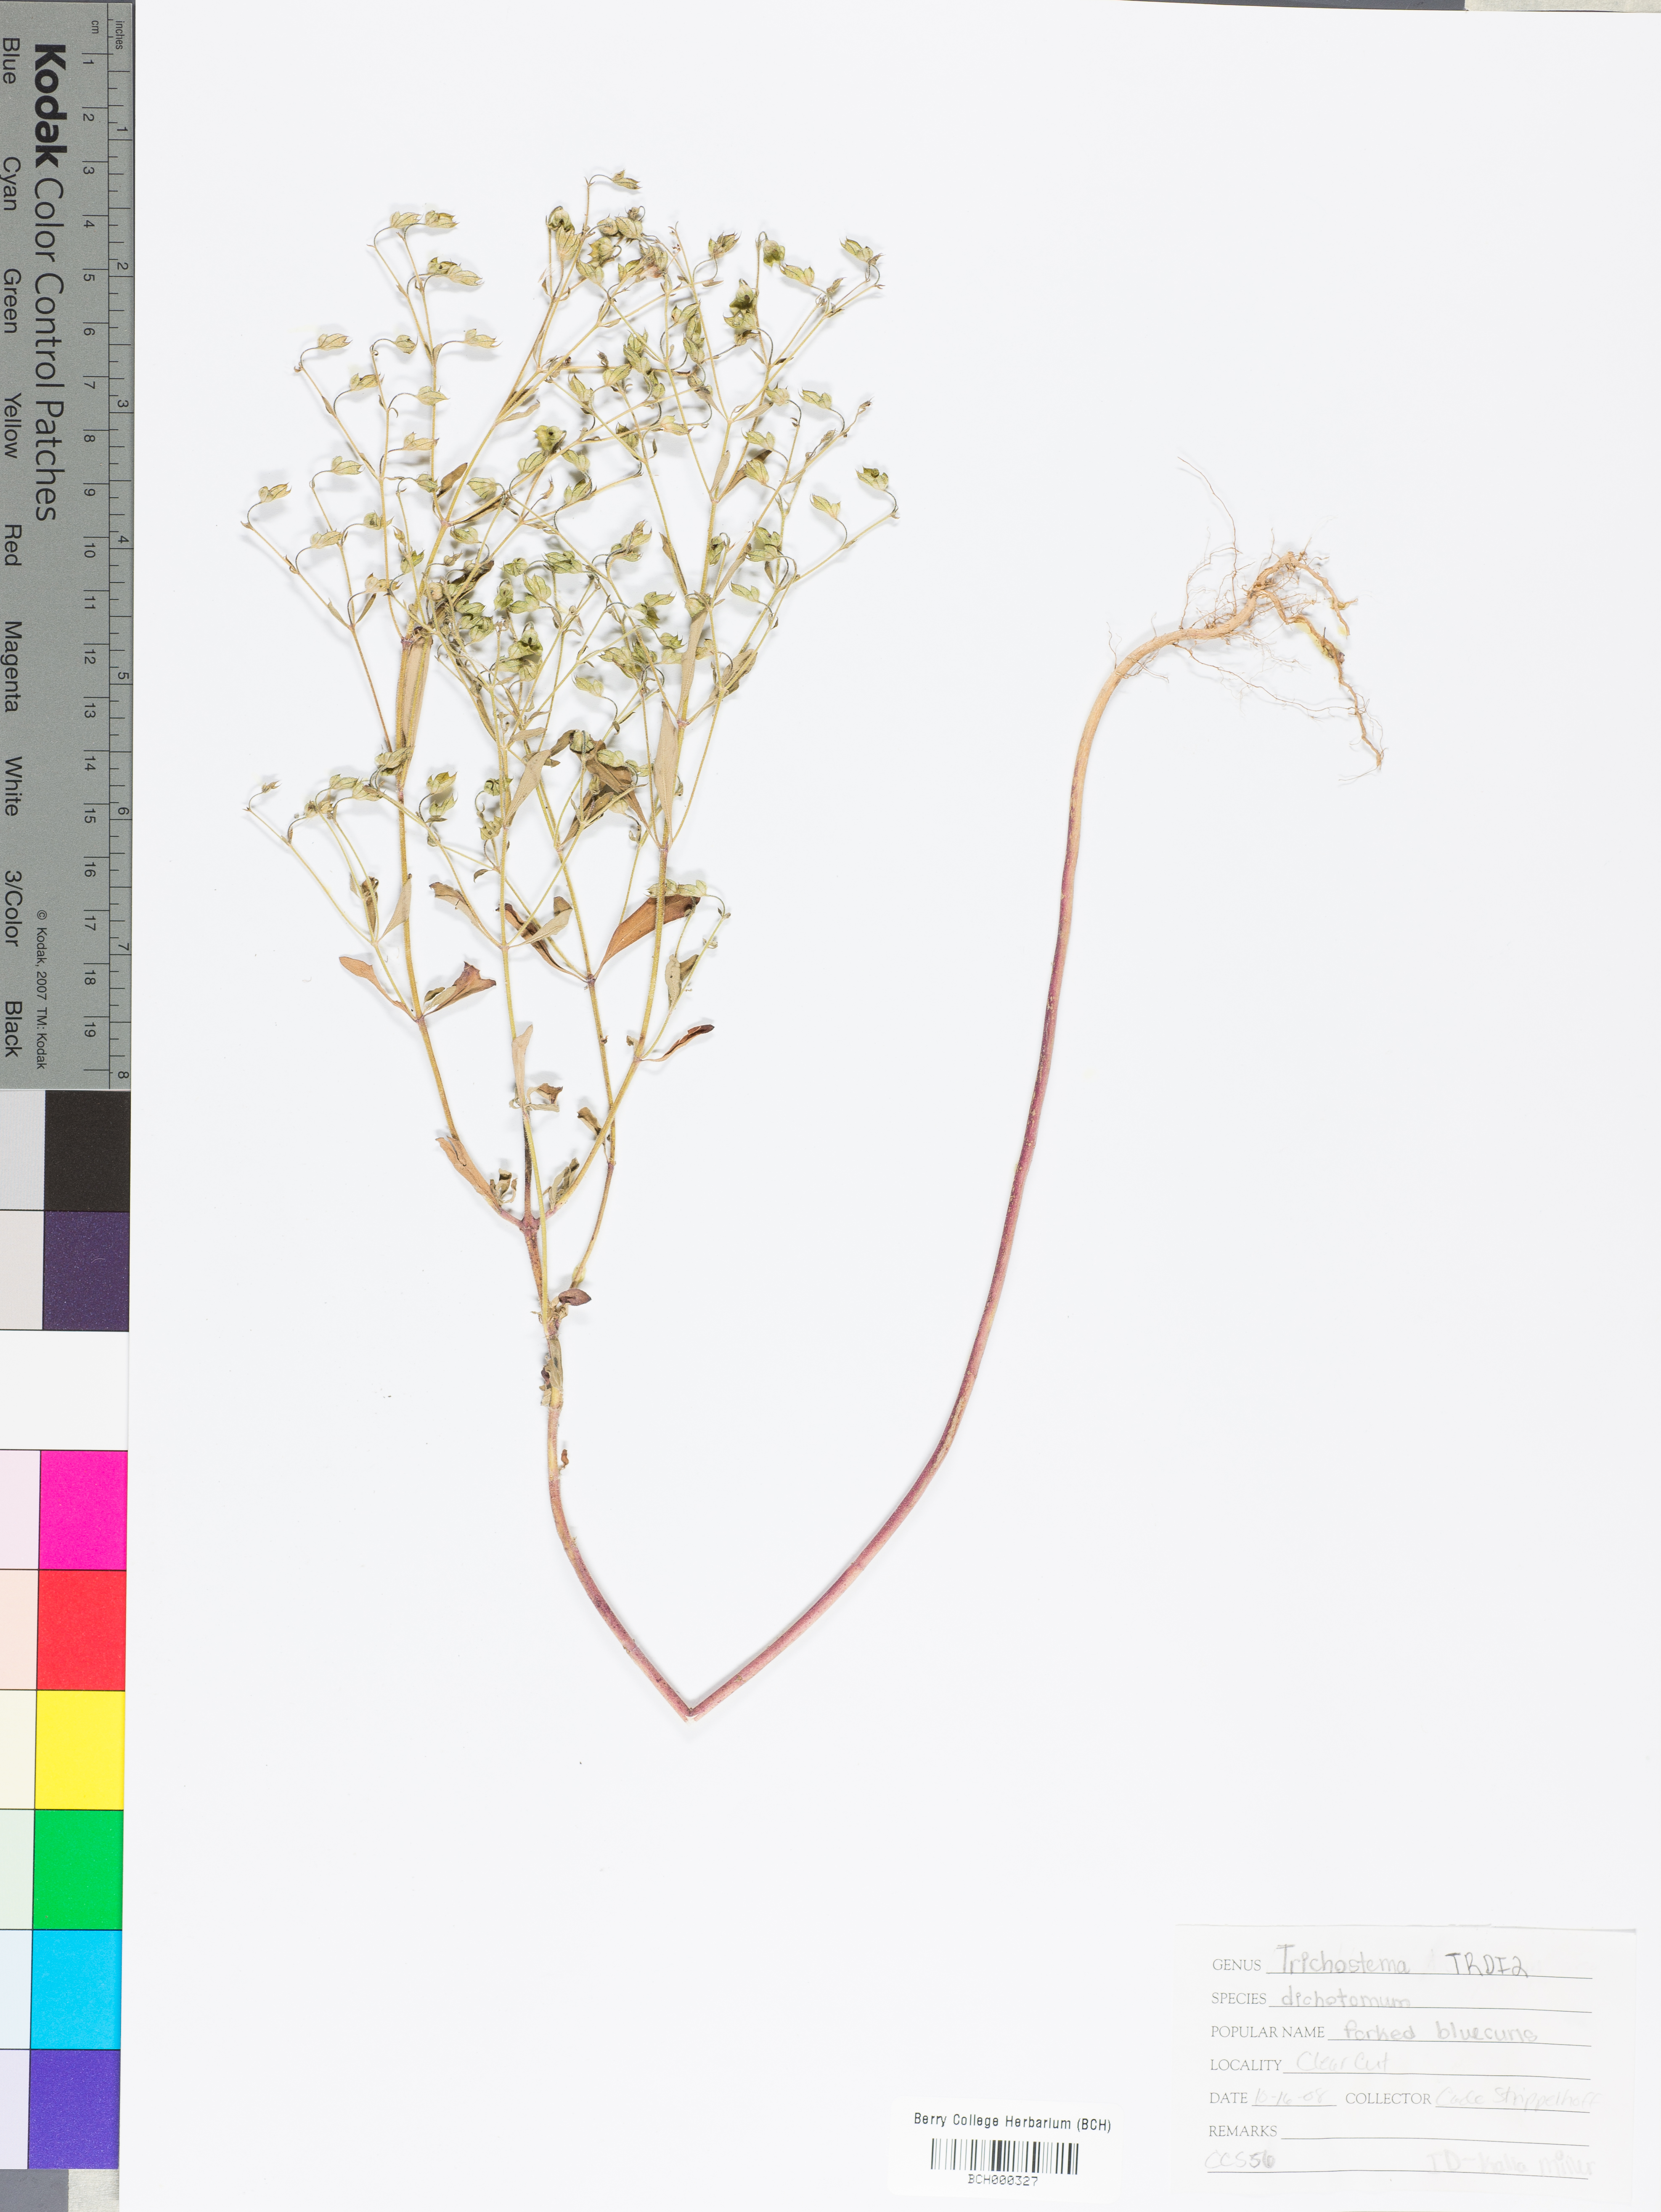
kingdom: Plantae
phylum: Tracheophyta
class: Magnoliopsida
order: Lamiales
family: Lamiaceae
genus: Trichostema
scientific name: Trichostema dichotomum
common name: Bastard pennyroyal
